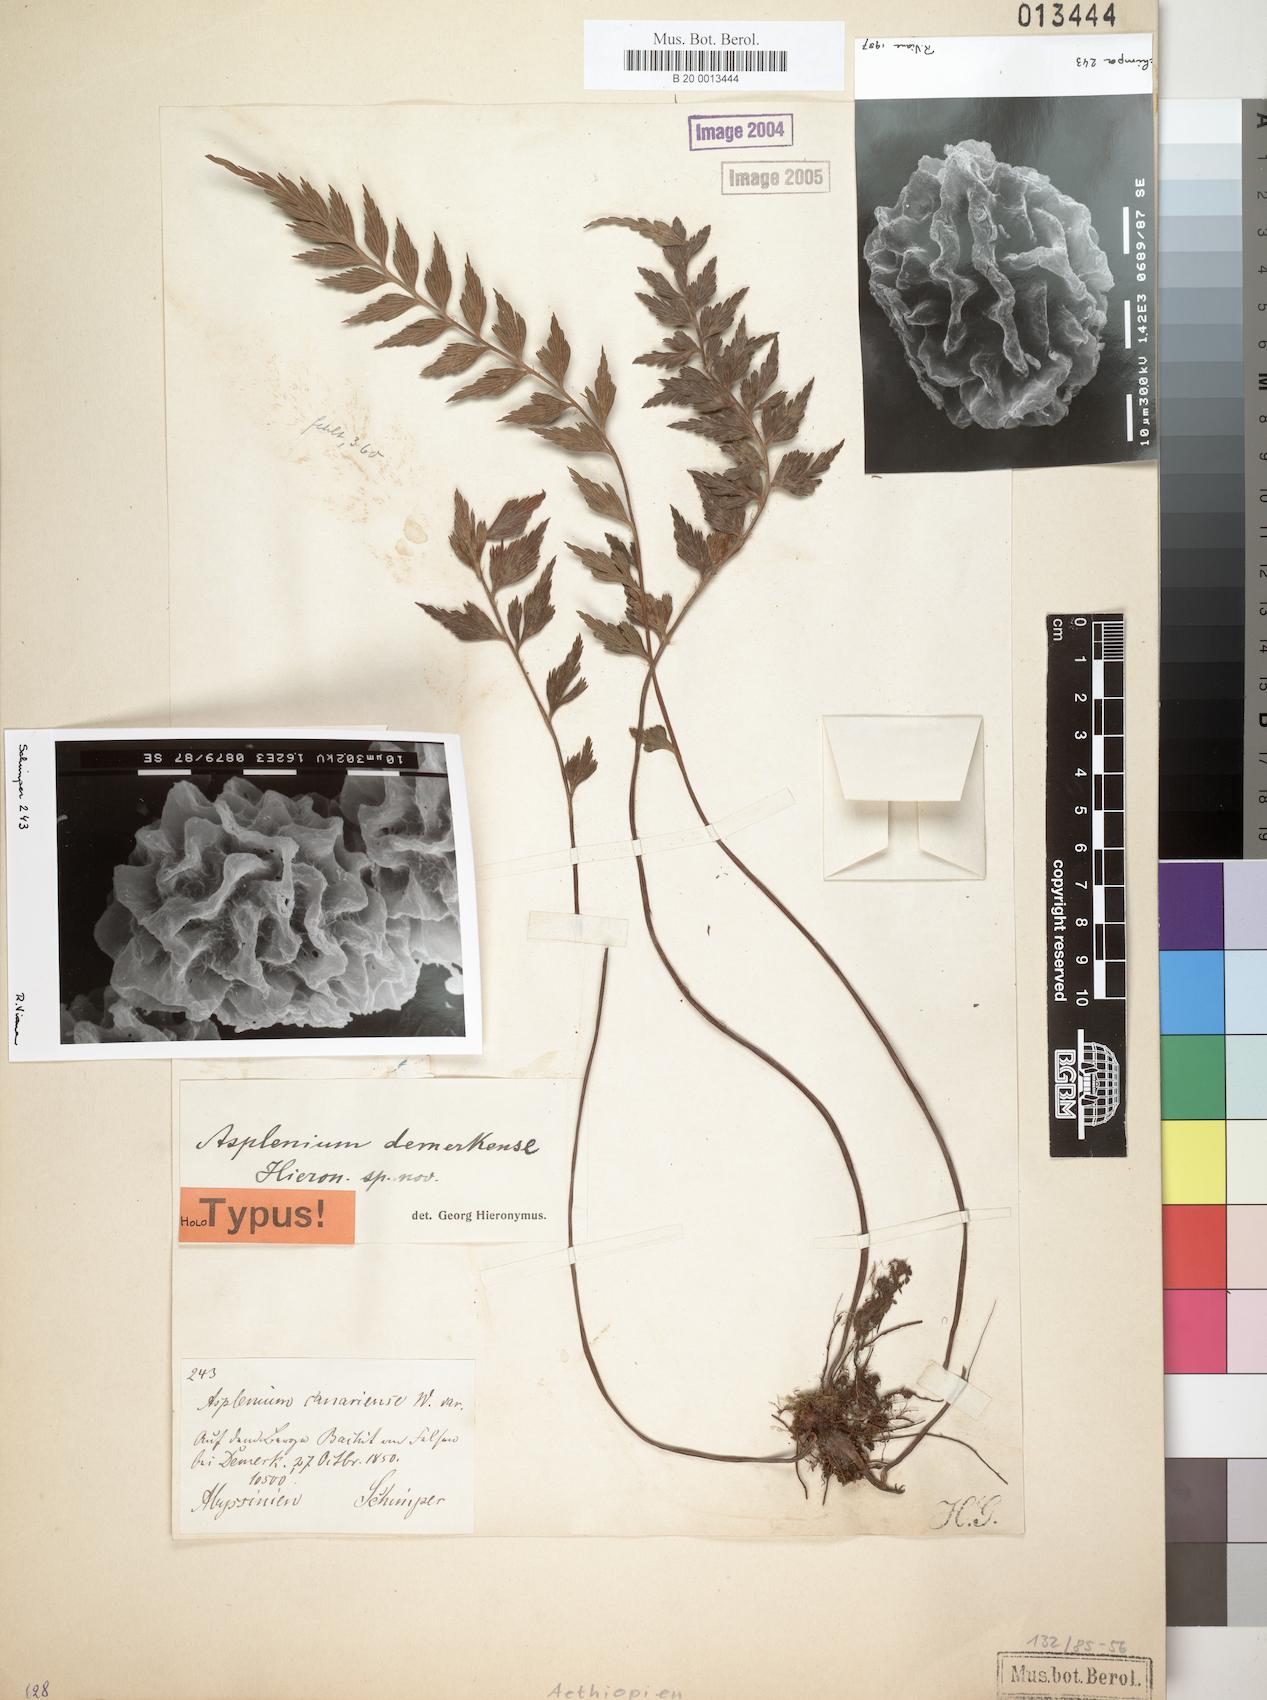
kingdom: Plantae
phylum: Tracheophyta
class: Polypodiopsida
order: Polypodiales
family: Aspleniaceae
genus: Asplenium
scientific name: Asplenium demerkense
